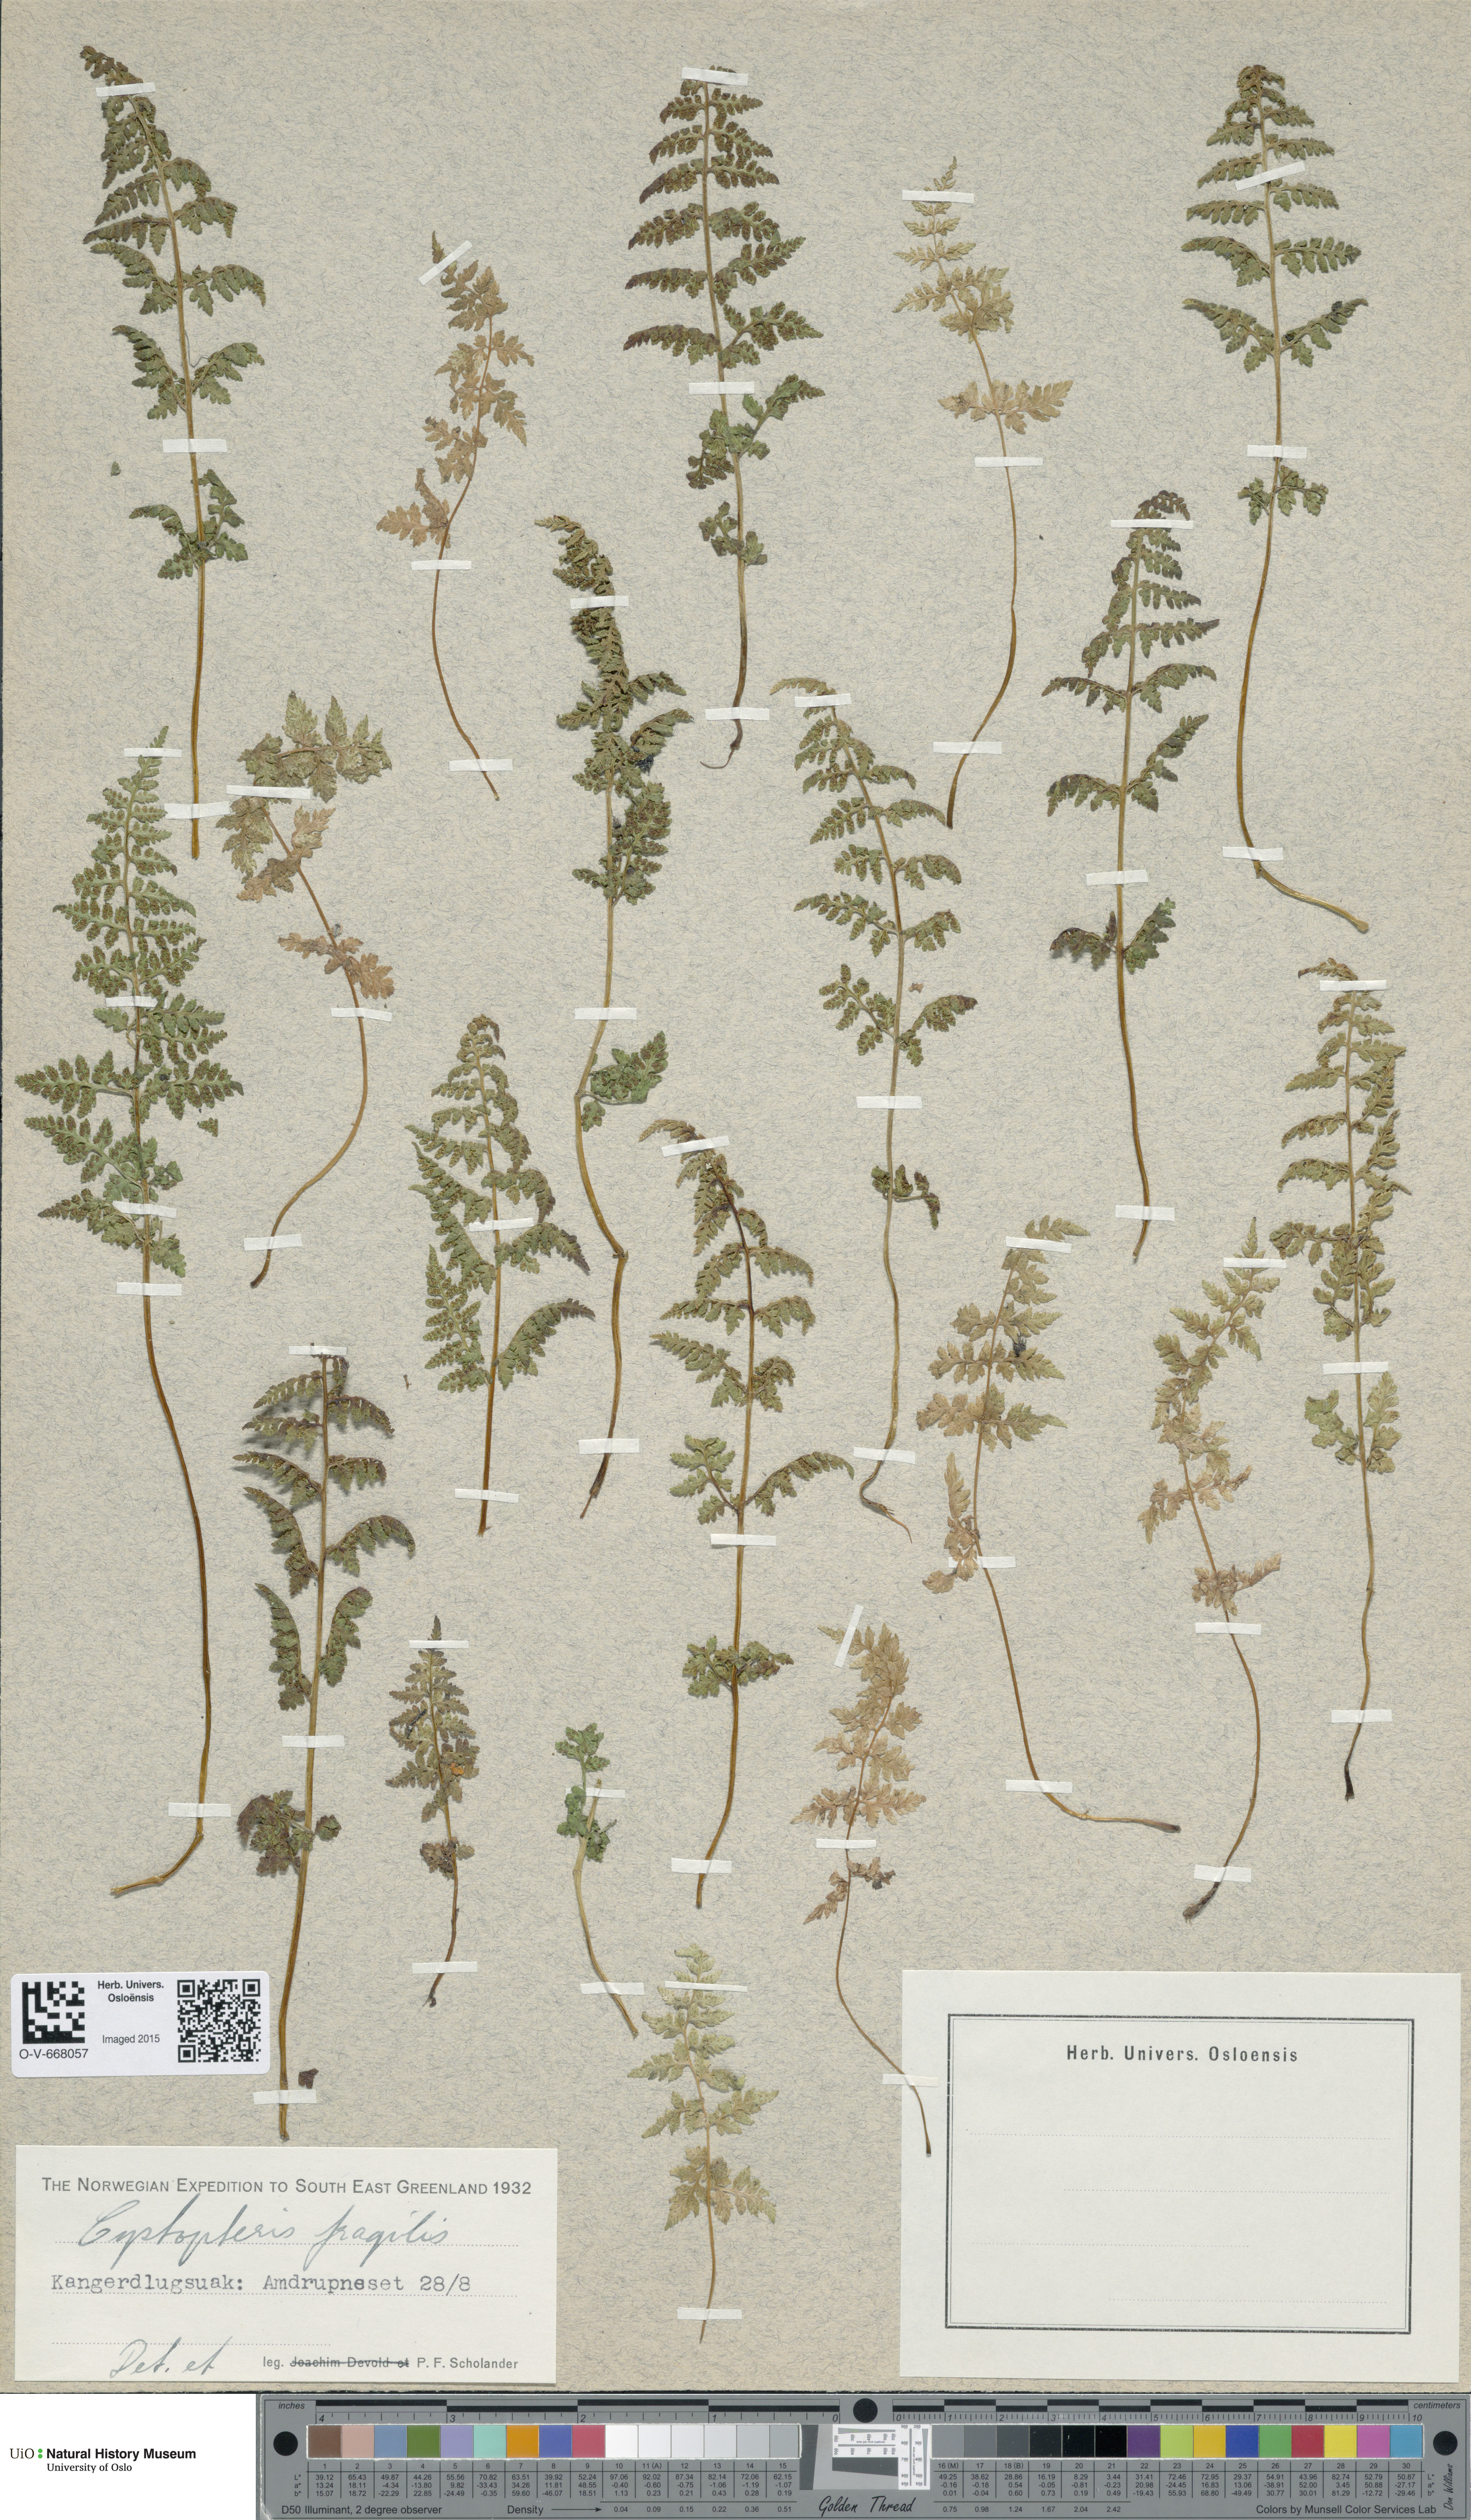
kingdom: Plantae
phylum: Tracheophyta
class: Polypodiopsida
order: Polypodiales
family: Cystopteridaceae
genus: Cystopteris
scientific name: Cystopteris fragilis
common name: Brittle bladder fern
